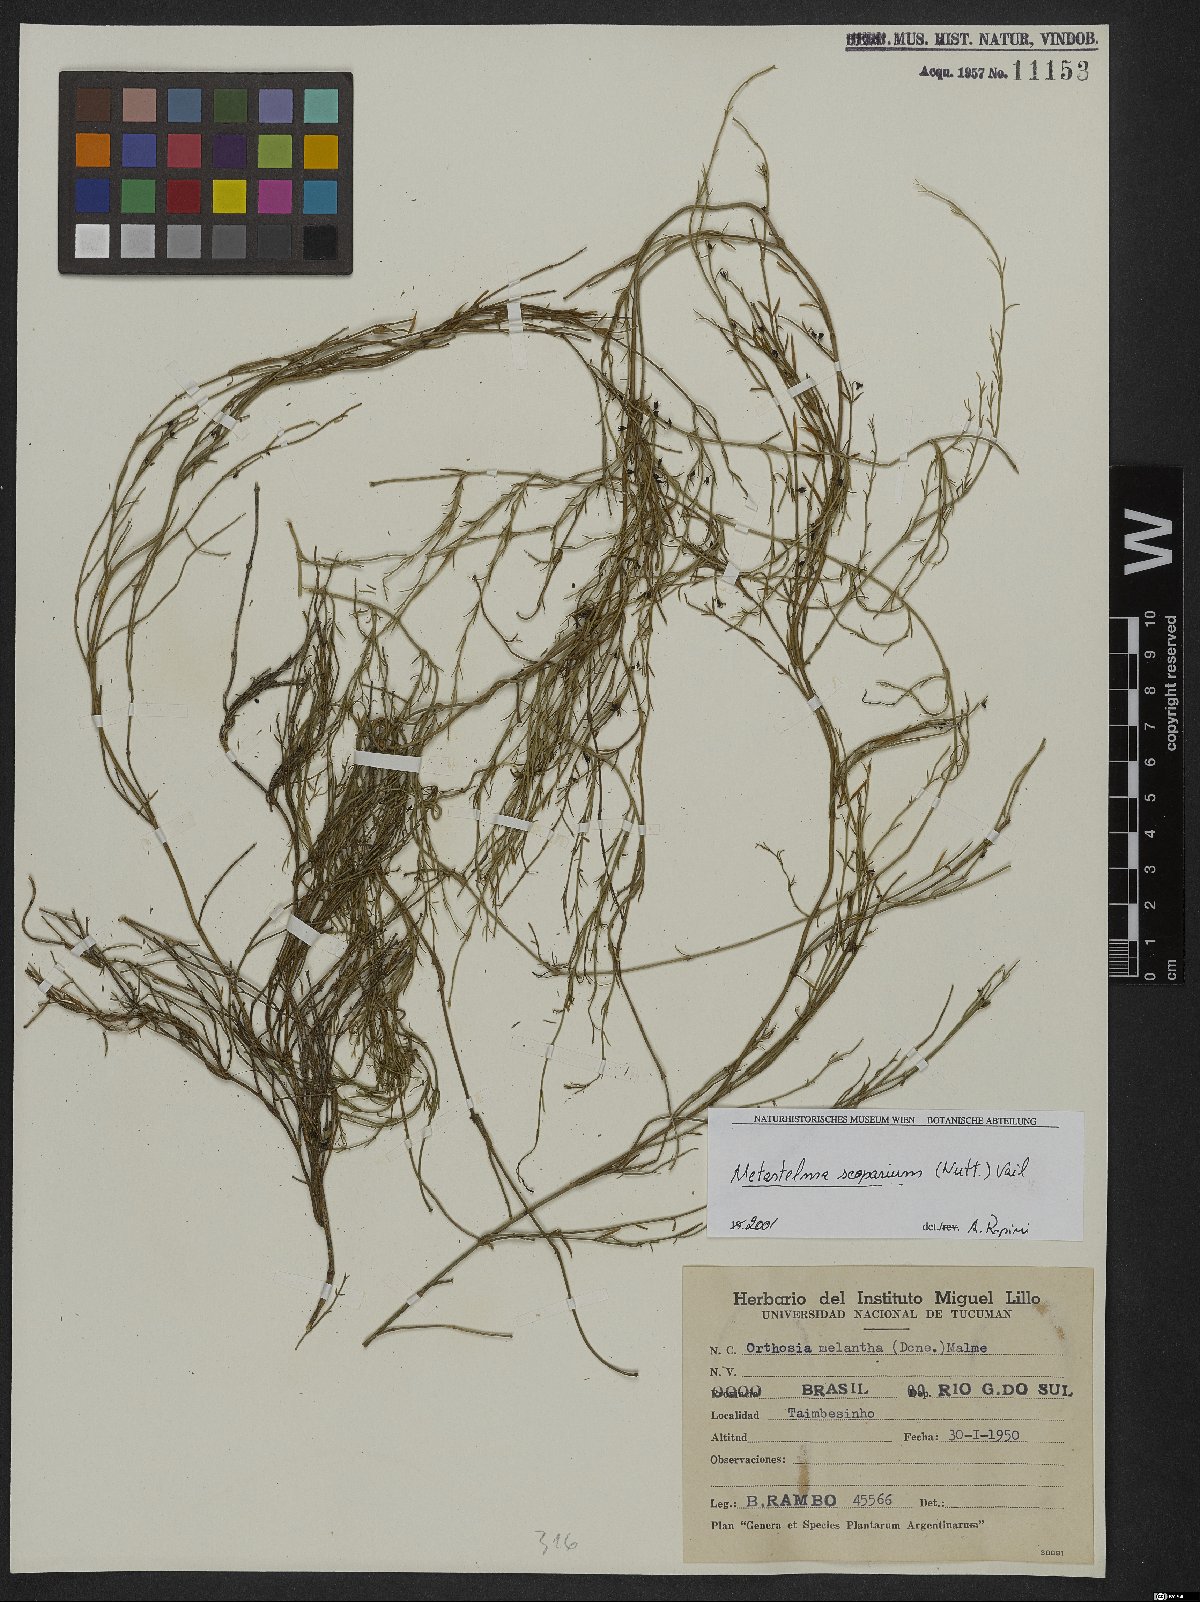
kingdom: Plantae
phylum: Tracheophyta
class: Magnoliopsida
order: Gentianales
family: Apocynaceae
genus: Orthosia
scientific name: Orthosia scoparia
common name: Leafless swallow-wort
